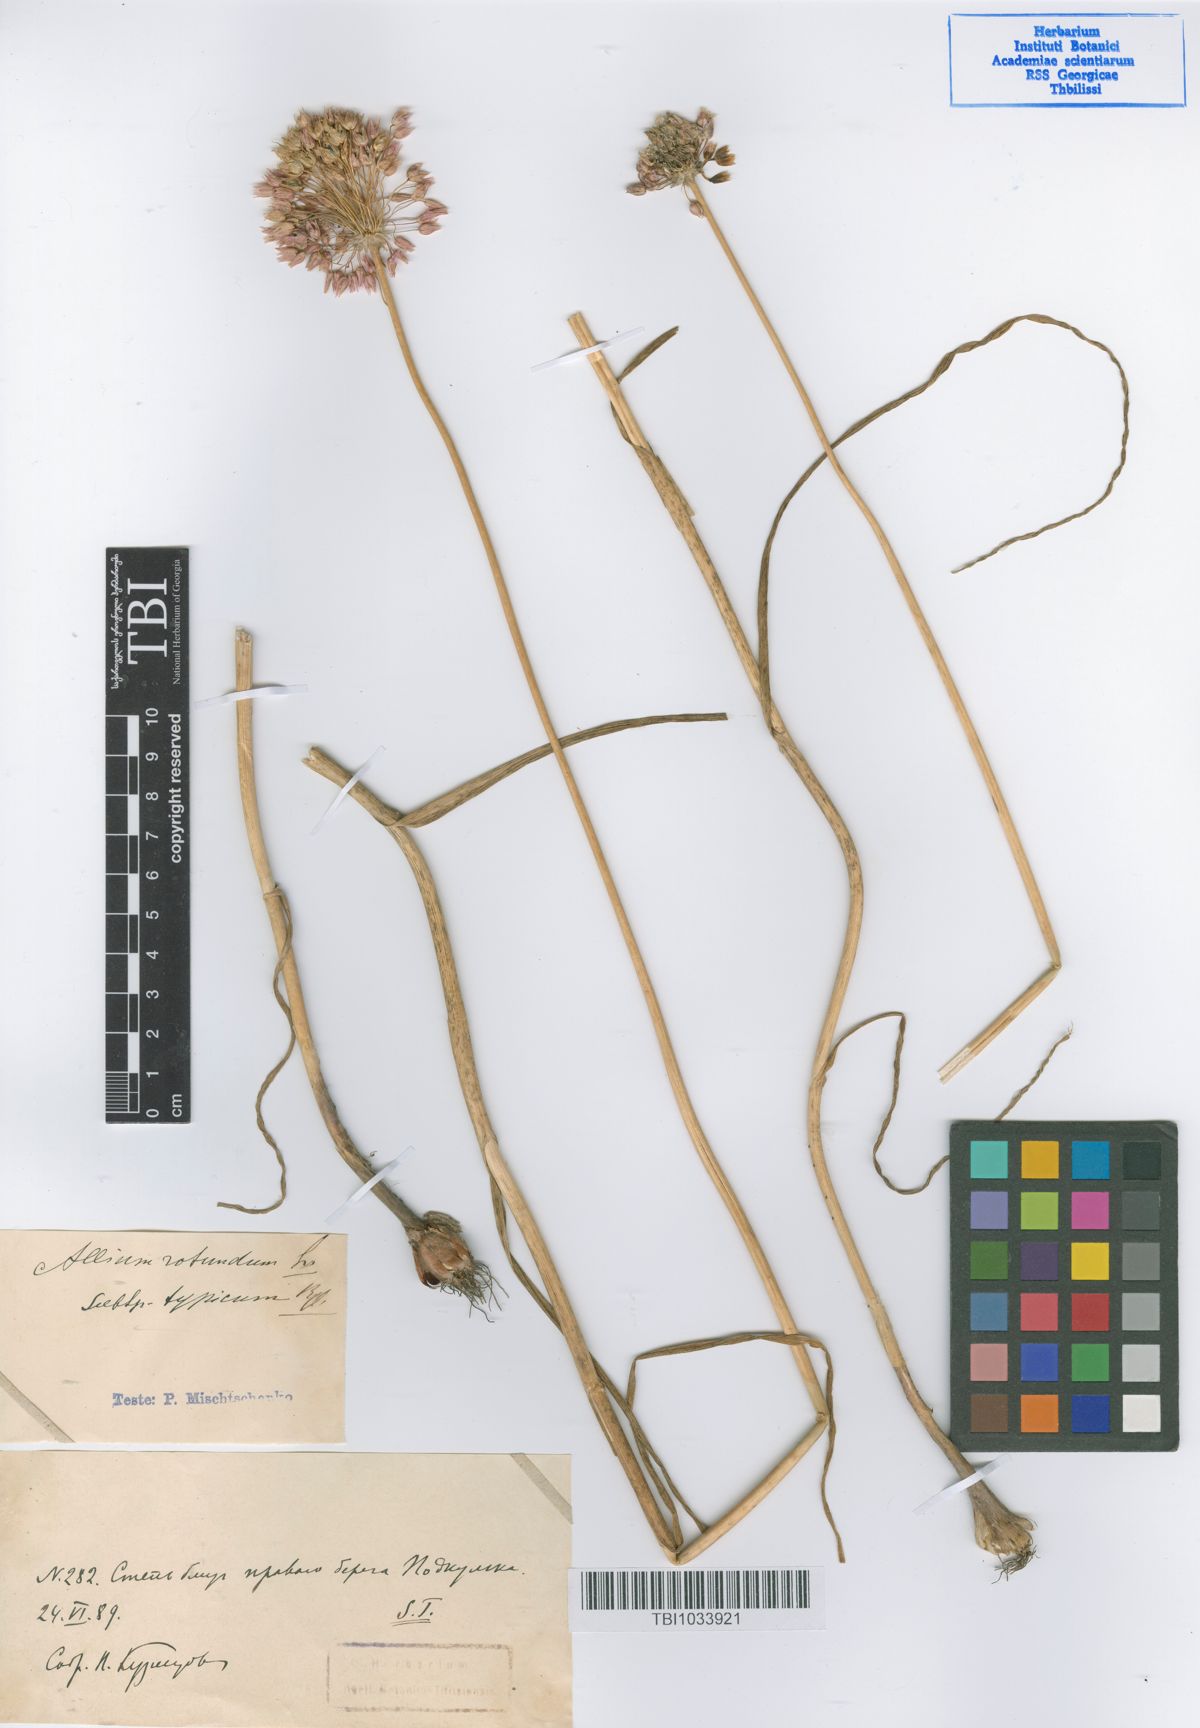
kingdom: Plantae
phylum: Tracheophyta
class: Liliopsida
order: Asparagales
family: Amaryllidaceae
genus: Allium
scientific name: Allium rotundum
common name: Sand leek
